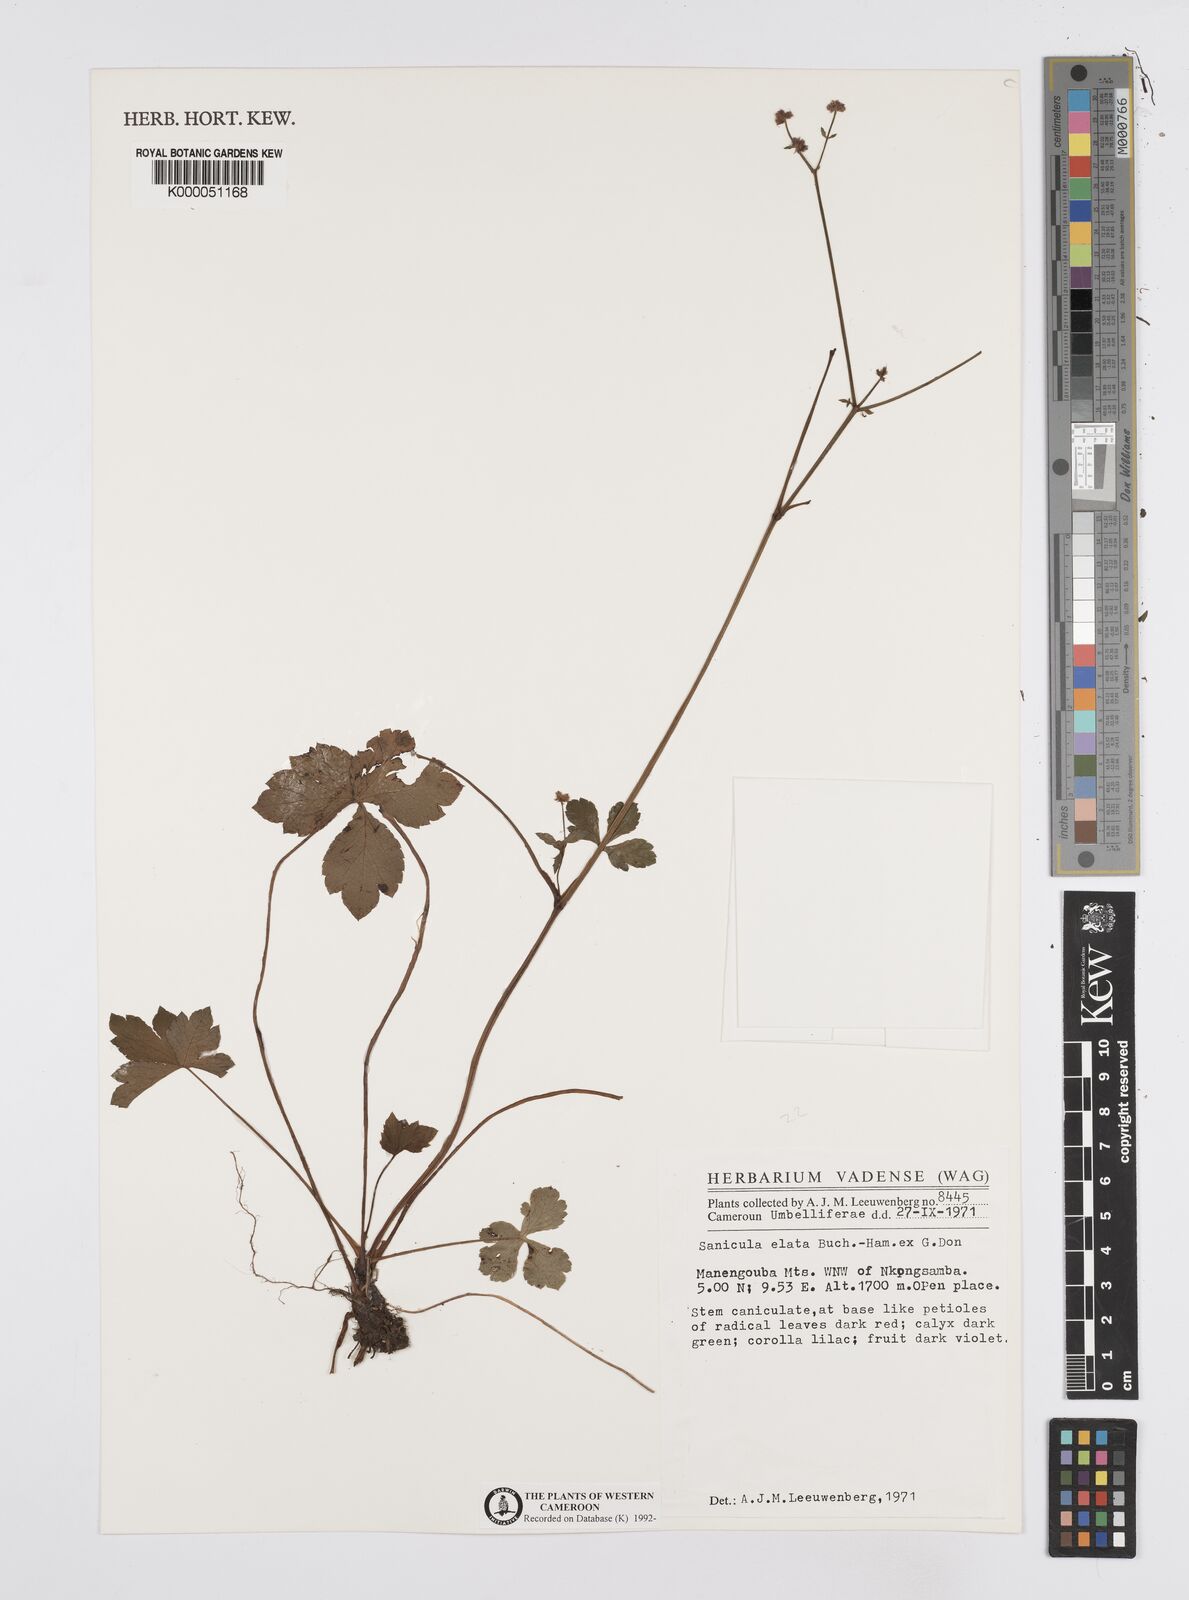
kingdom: Plantae
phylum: Tracheophyta
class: Magnoliopsida
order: Apiales
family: Apiaceae
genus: Sanicula
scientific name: Sanicula
